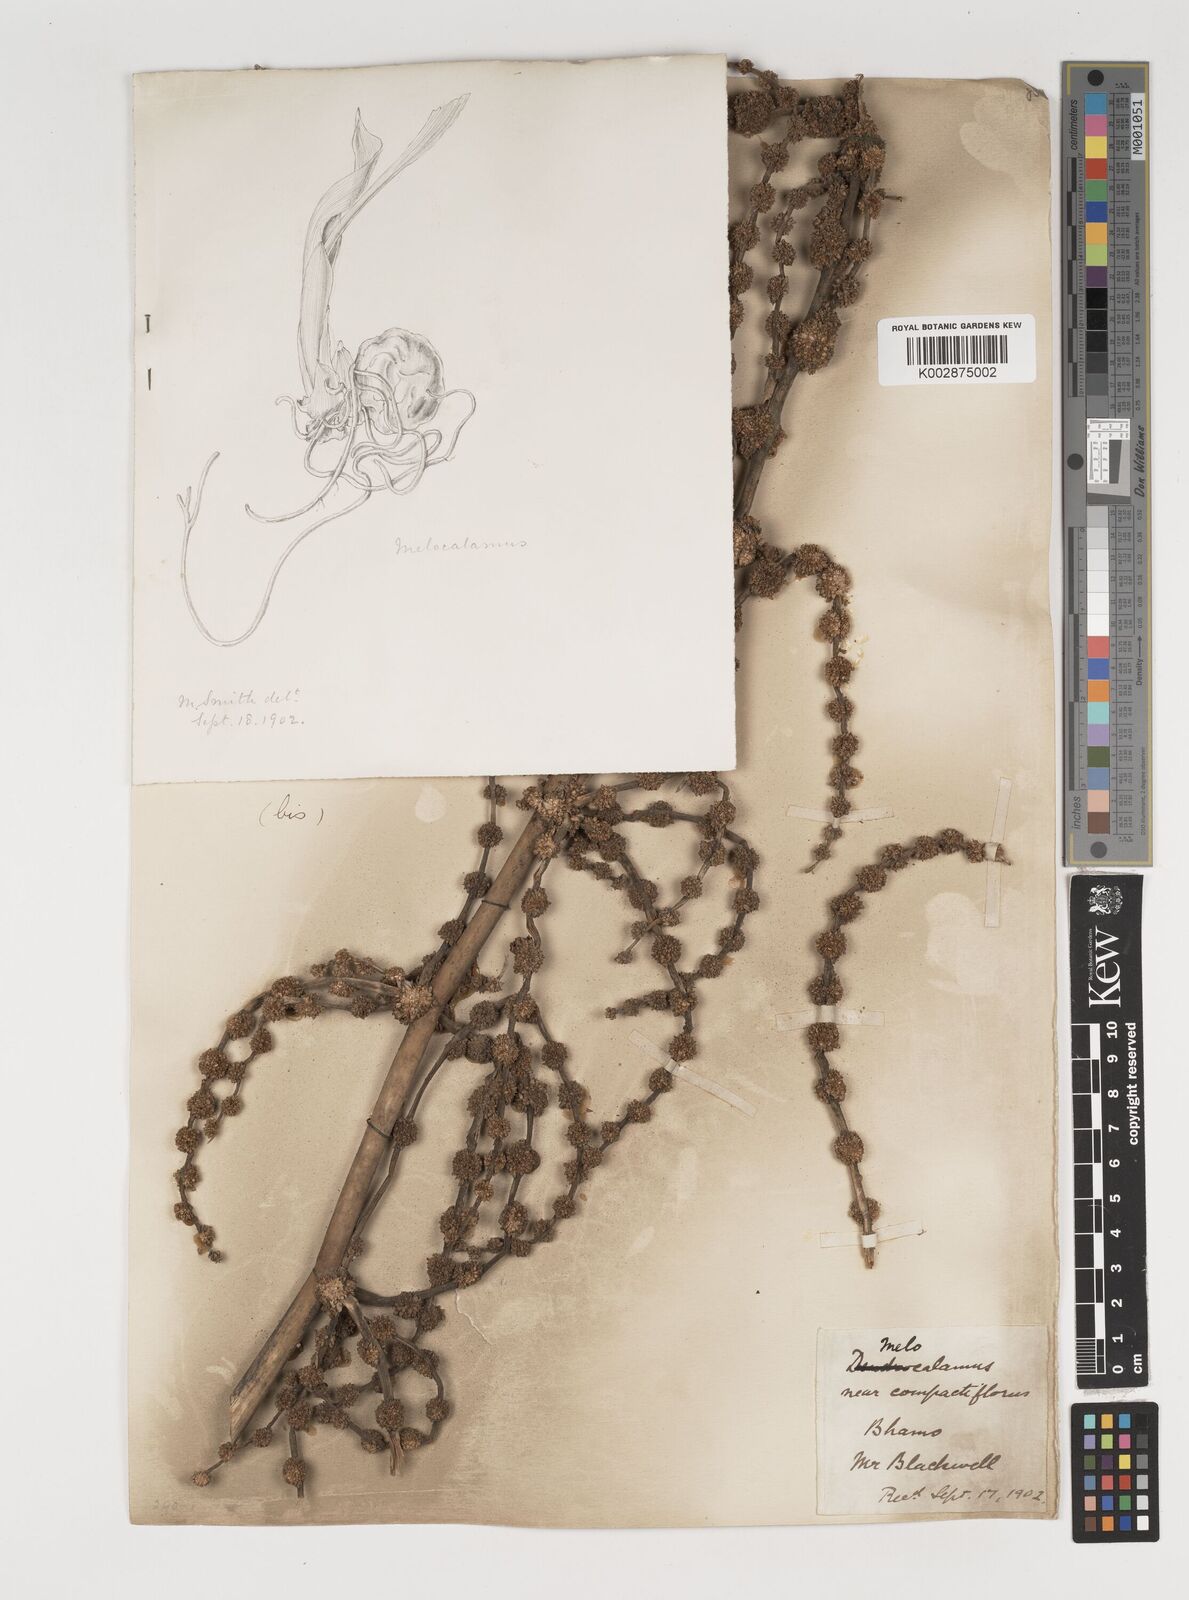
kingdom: Plantae
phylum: Tracheophyta
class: Liliopsida
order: Poales
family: Poaceae
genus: Melocalamus
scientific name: Melocalamus compactiflorus
